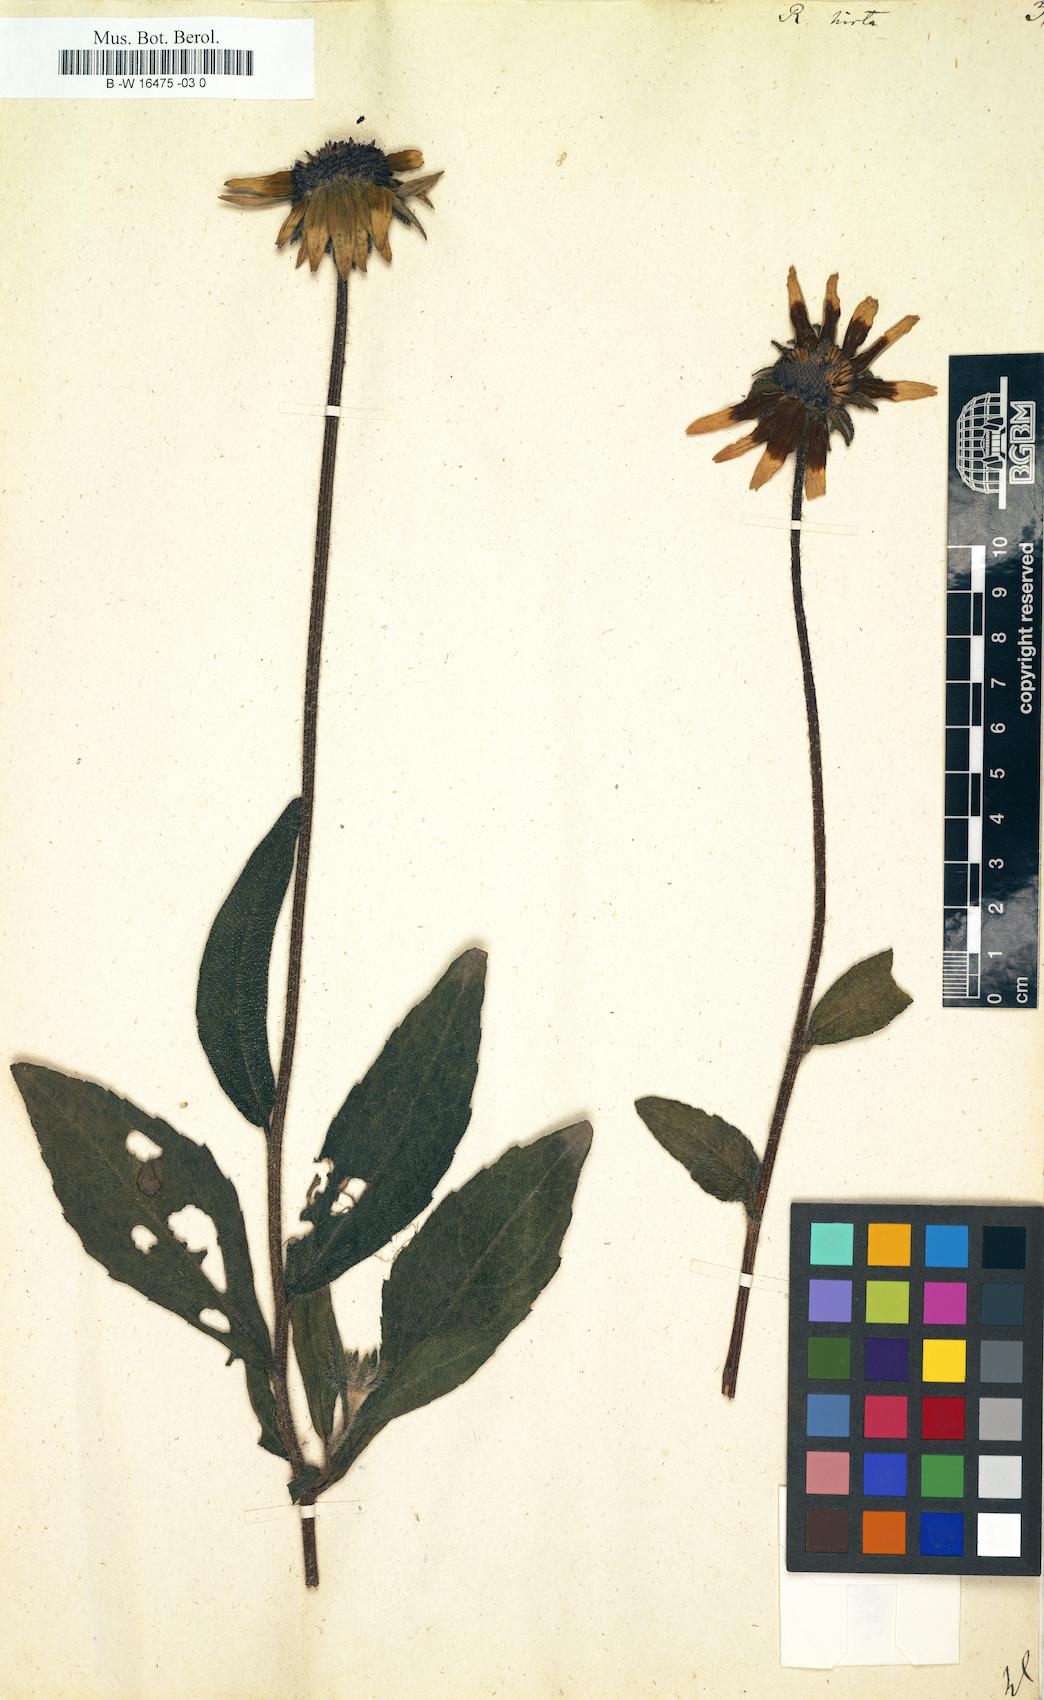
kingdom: Plantae
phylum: Tracheophyta
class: Magnoliopsida
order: Asterales
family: Asteraceae
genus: Rudbeckia
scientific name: Rudbeckia hirta
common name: Black-eyed-susan
